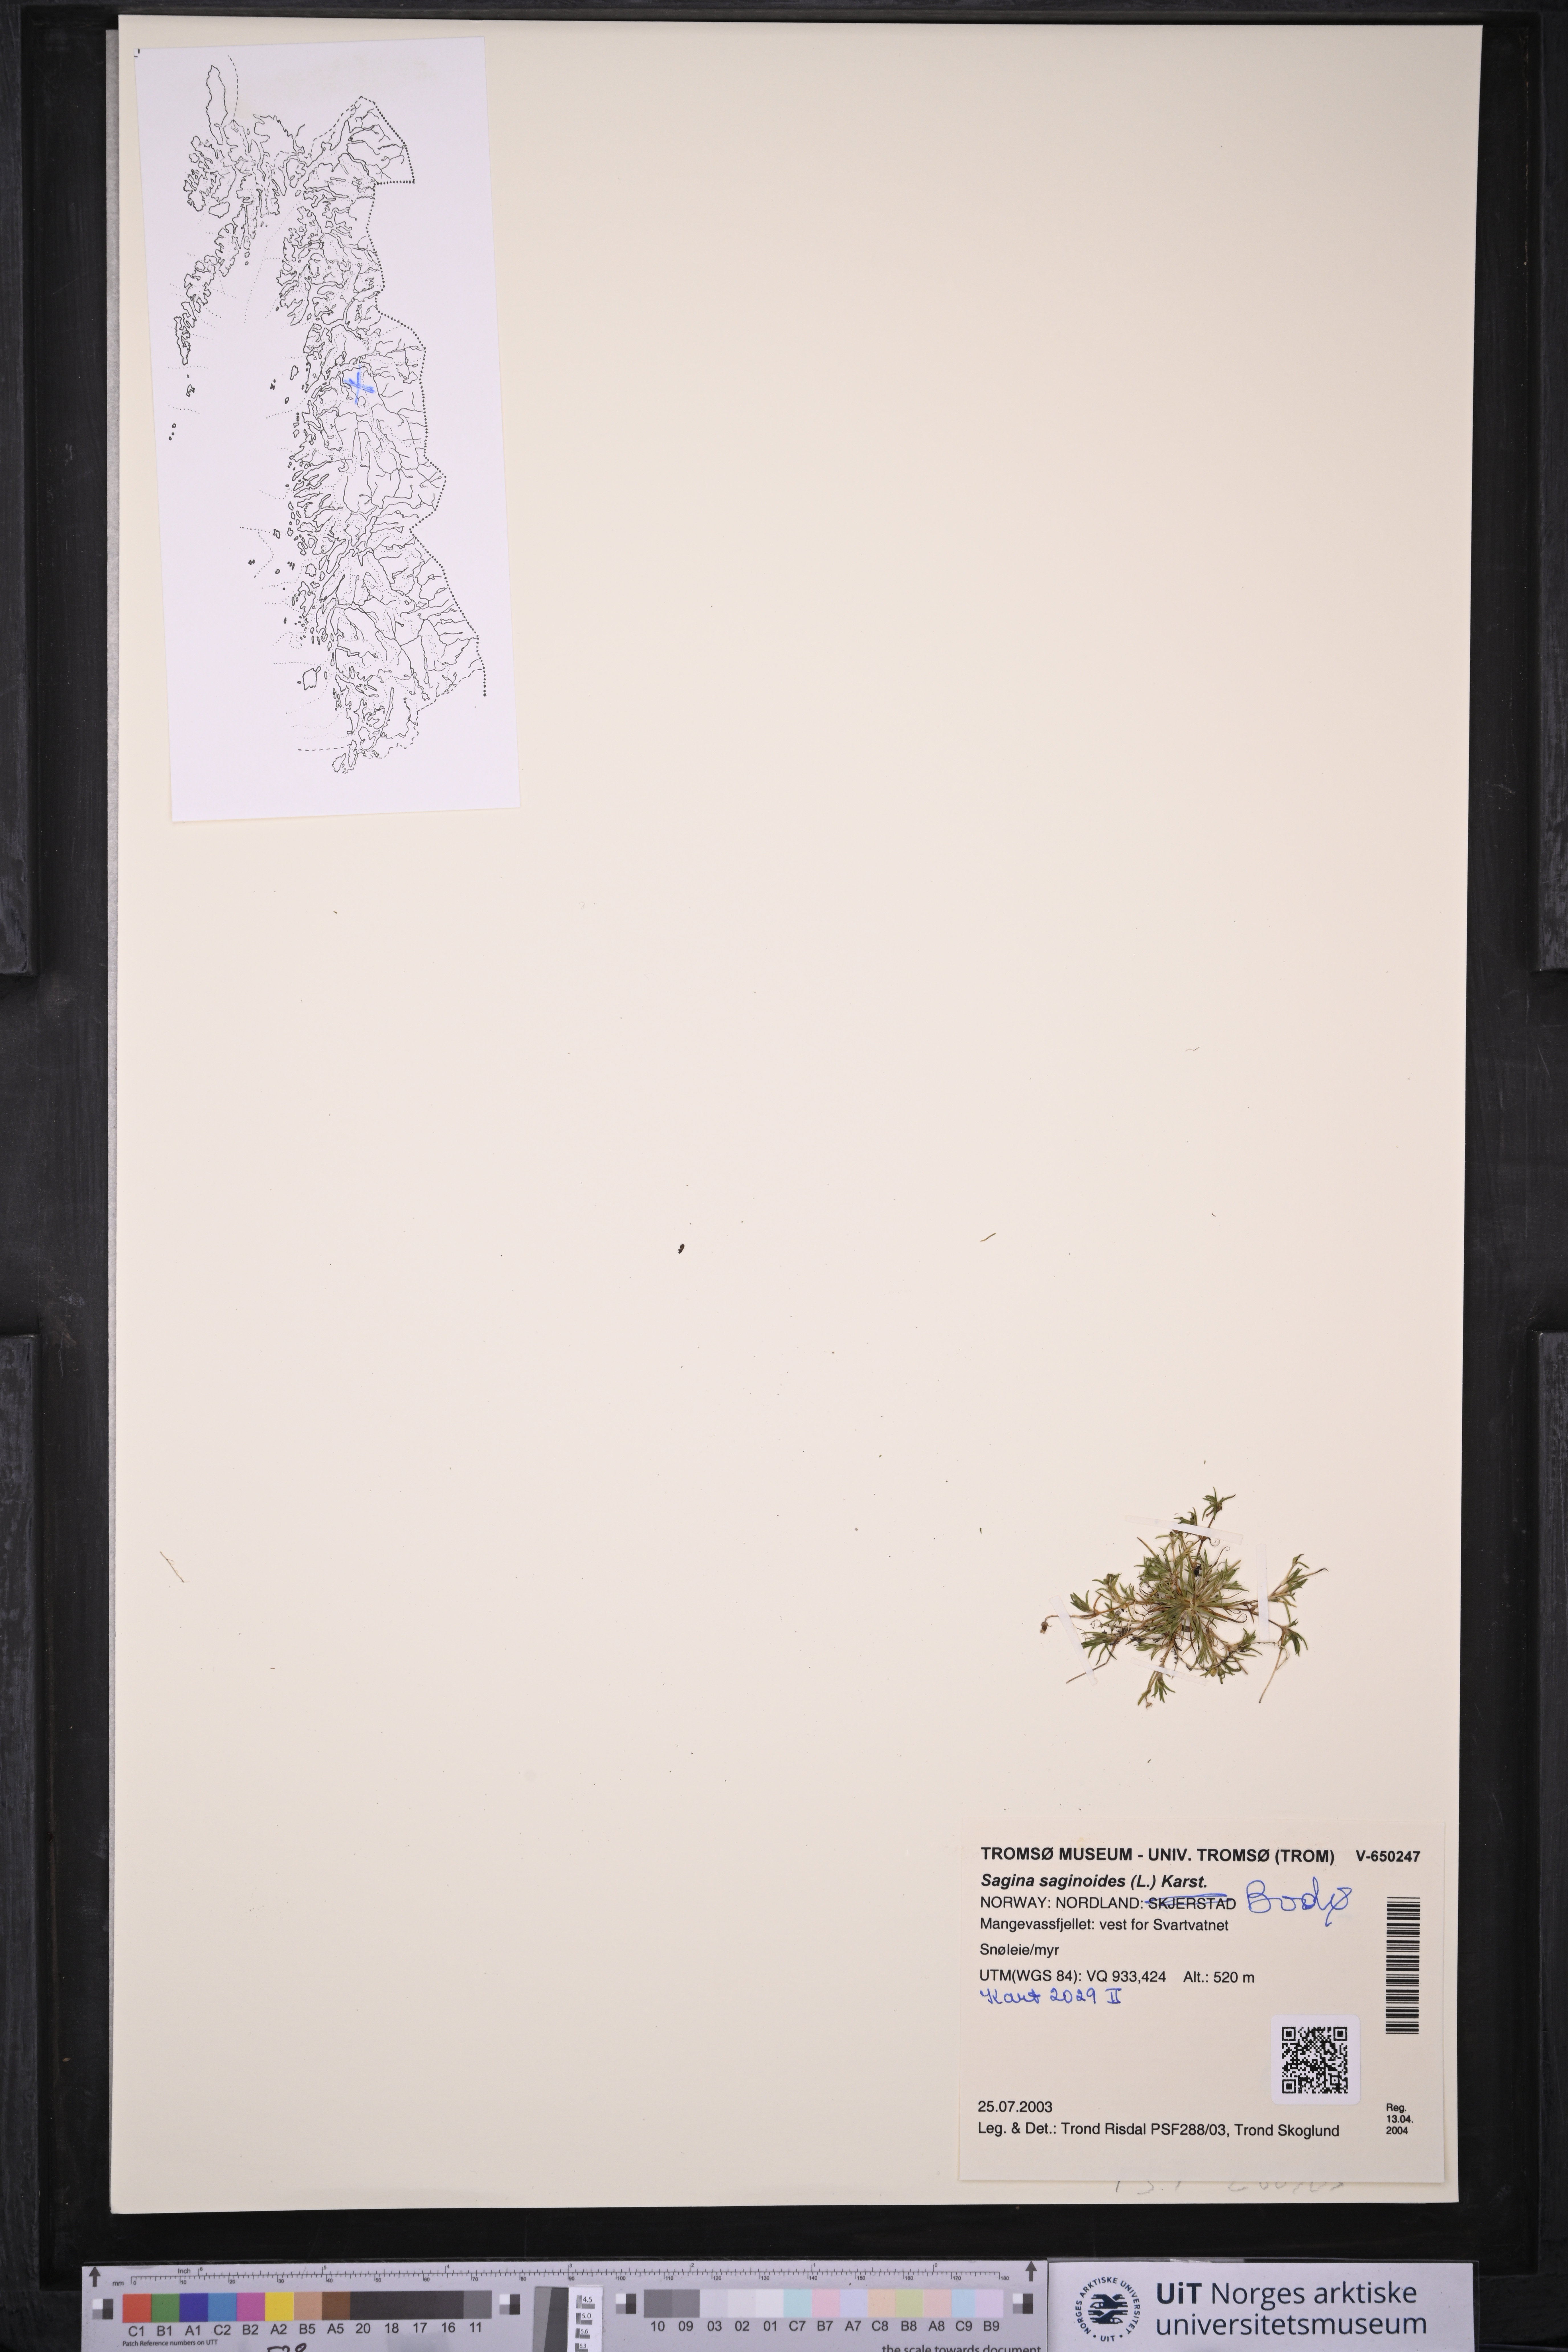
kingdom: Plantae
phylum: Tracheophyta
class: Magnoliopsida
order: Caryophyllales
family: Caryophyllaceae
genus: Sagina
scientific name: Sagina saginoides
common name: Alpine pearlwort
